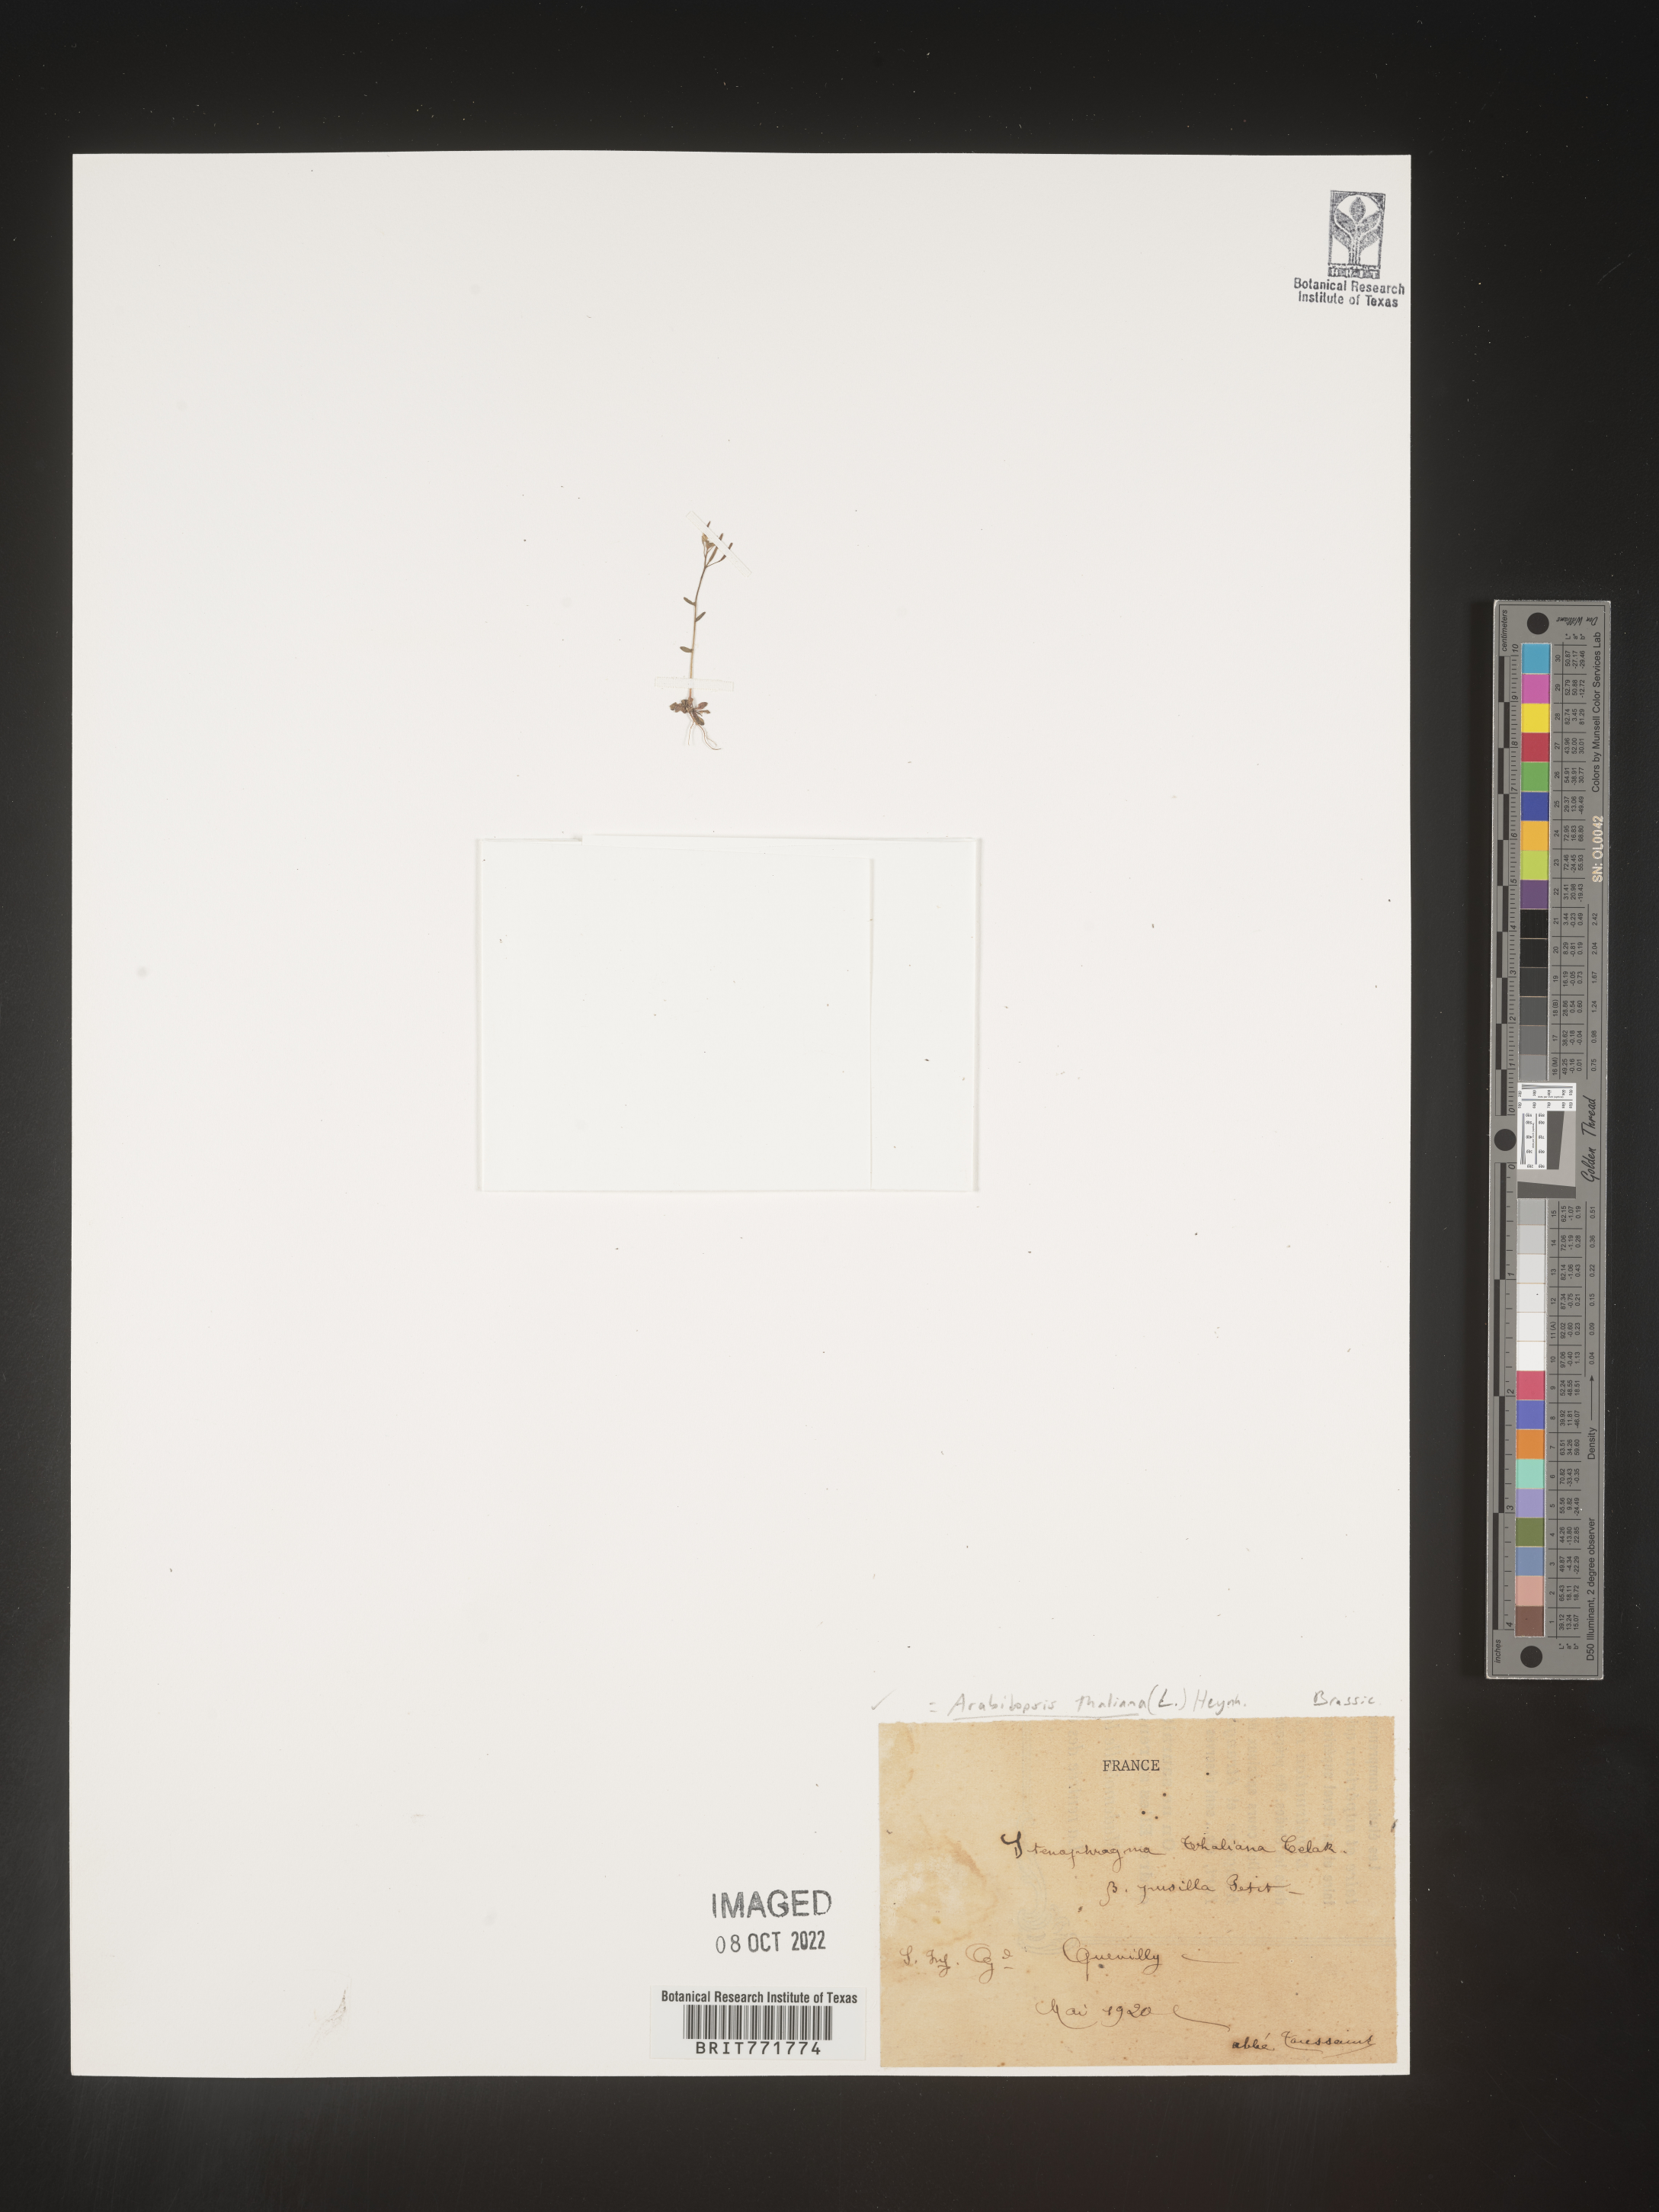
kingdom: Plantae
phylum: Tracheophyta
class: Magnoliopsida
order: Brassicales
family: Brassicaceae
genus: Arabis
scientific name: Arabis
